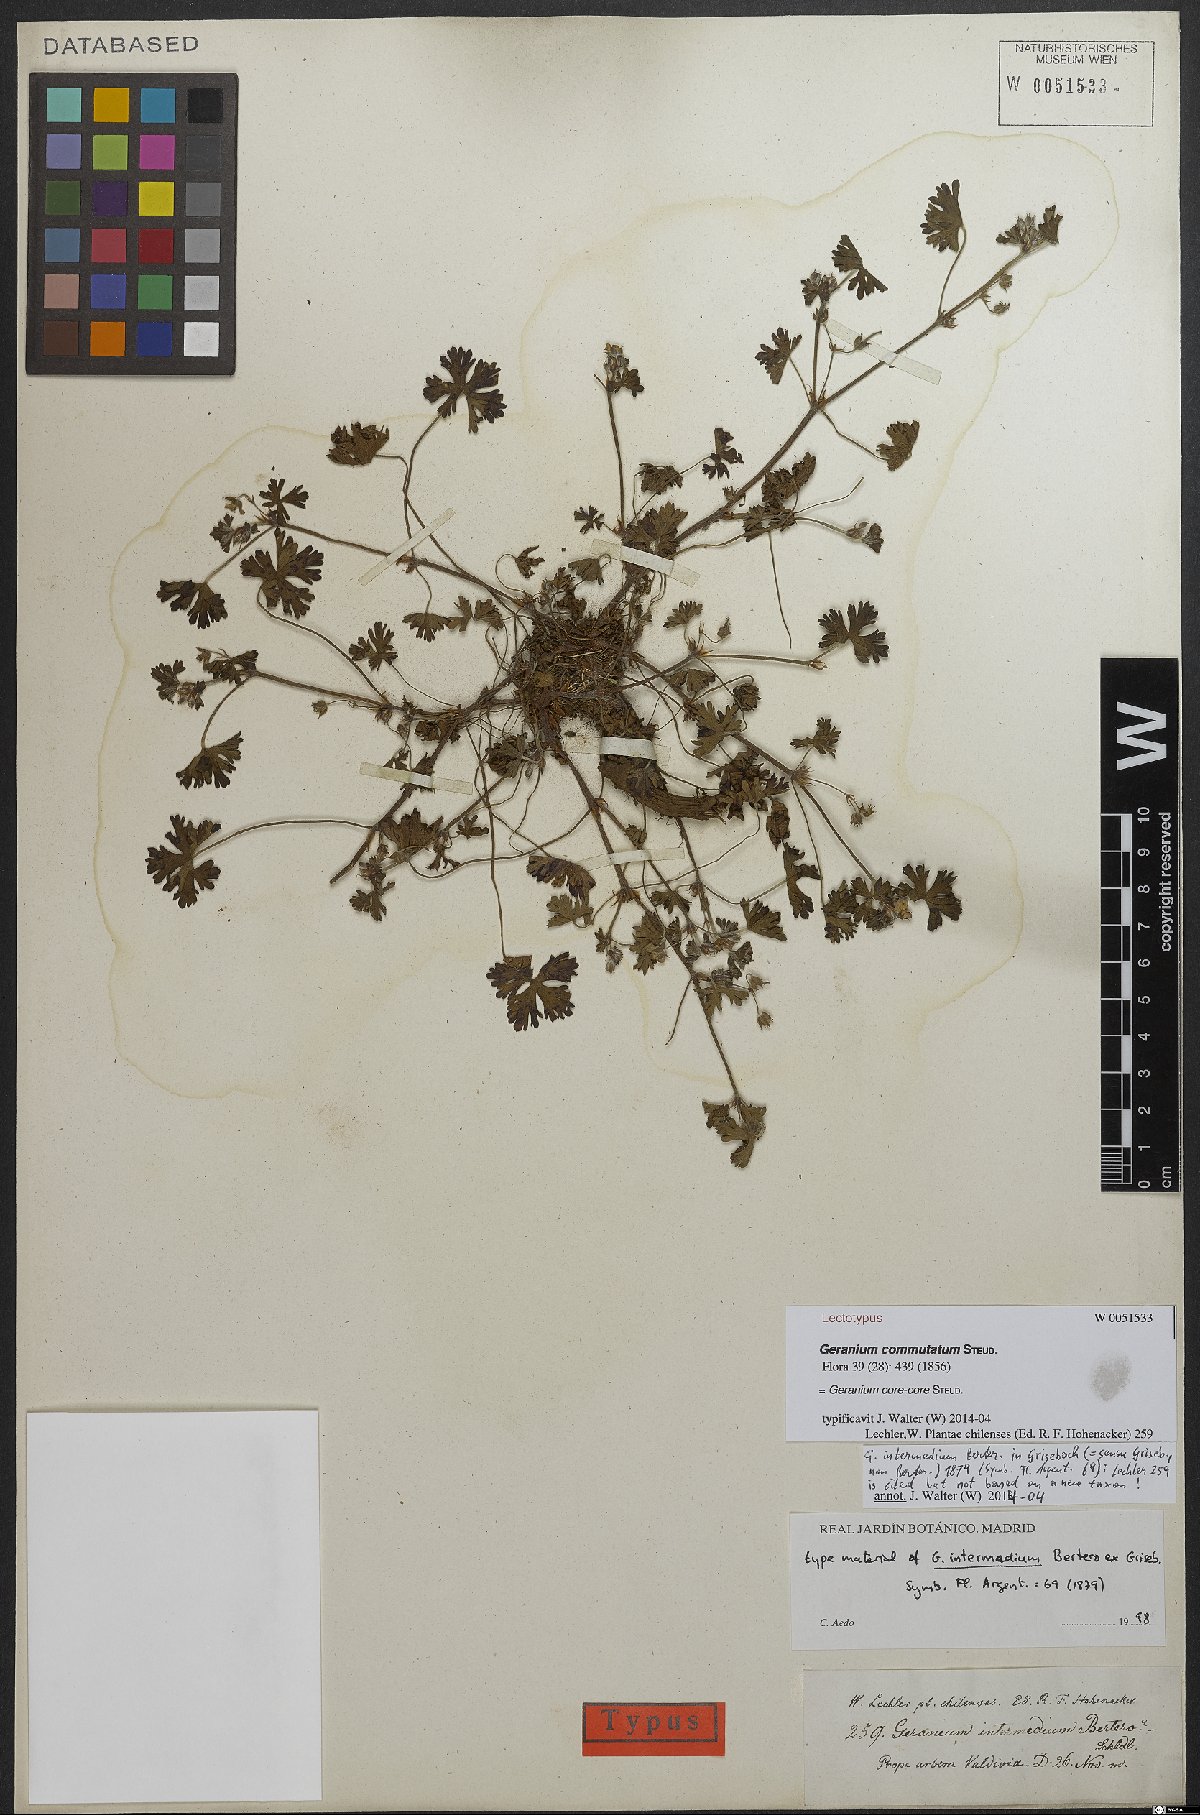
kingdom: Plantae
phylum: Tracheophyta
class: Magnoliopsida
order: Geraniales
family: Geraniaceae
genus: Geranium
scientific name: Geranium core-core
